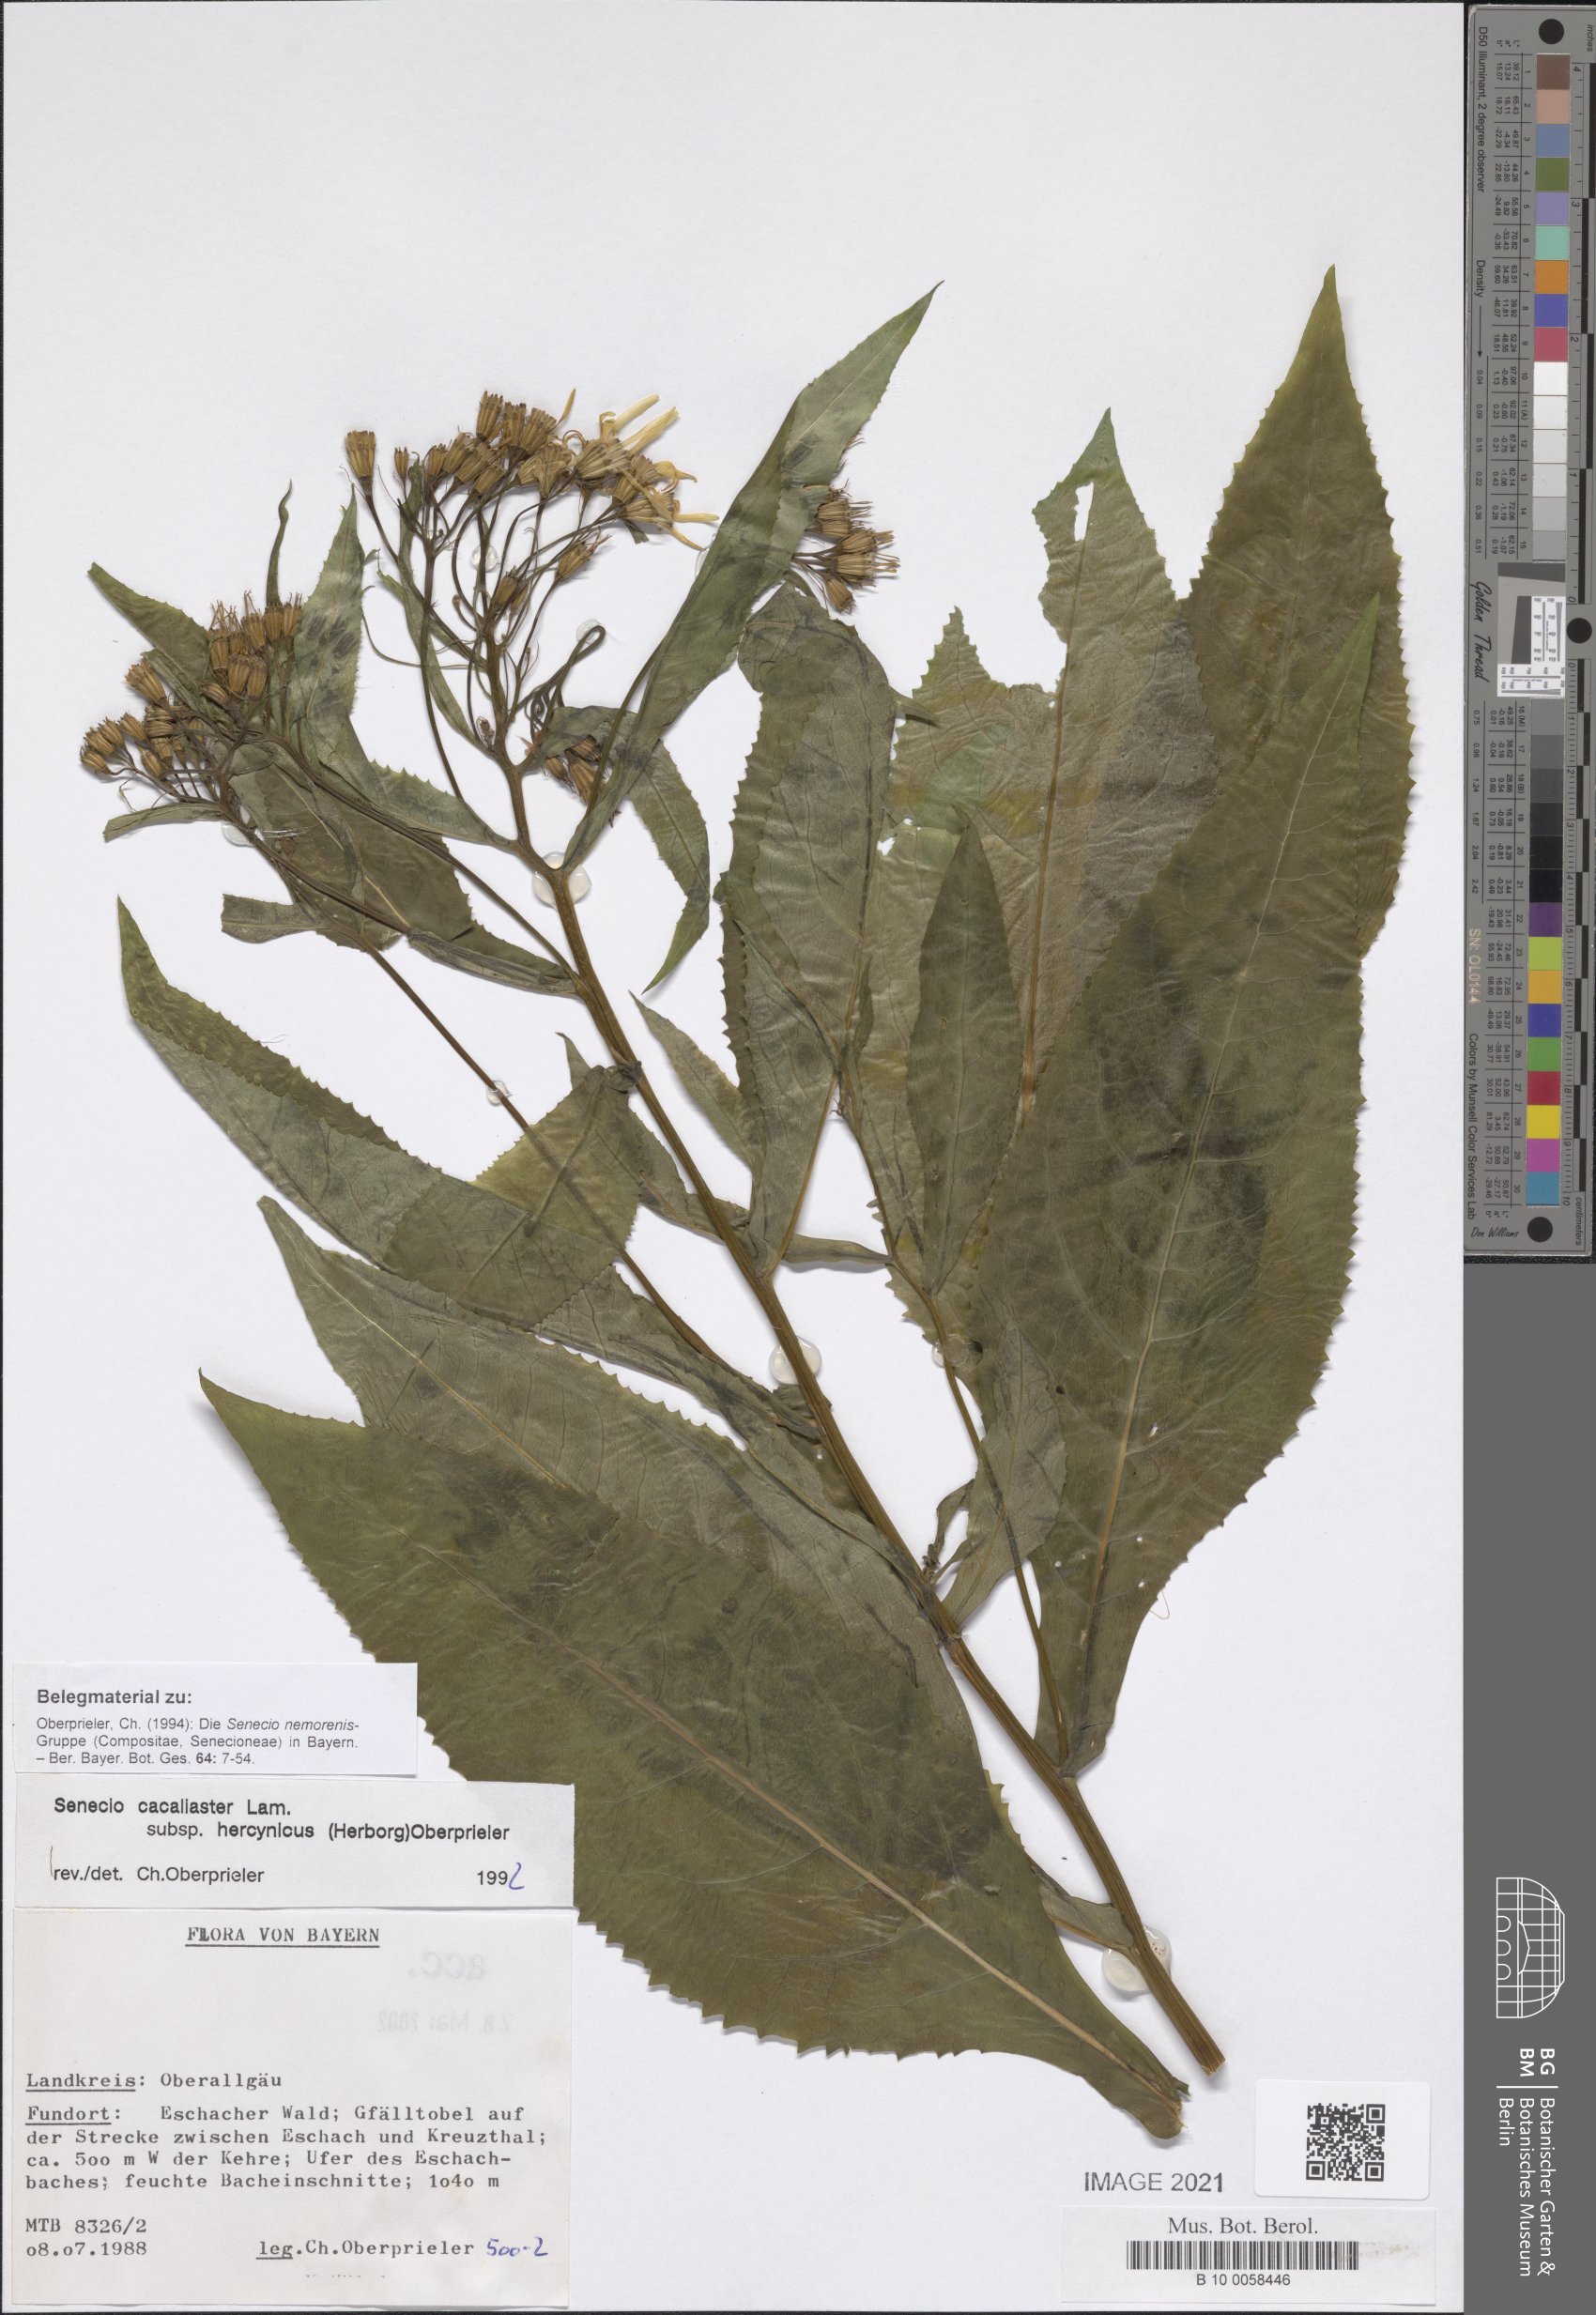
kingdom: Plantae
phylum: Tracheophyta
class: Magnoliopsida
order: Asterales
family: Asteraceae
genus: Senecio
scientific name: Senecio hercynicus
